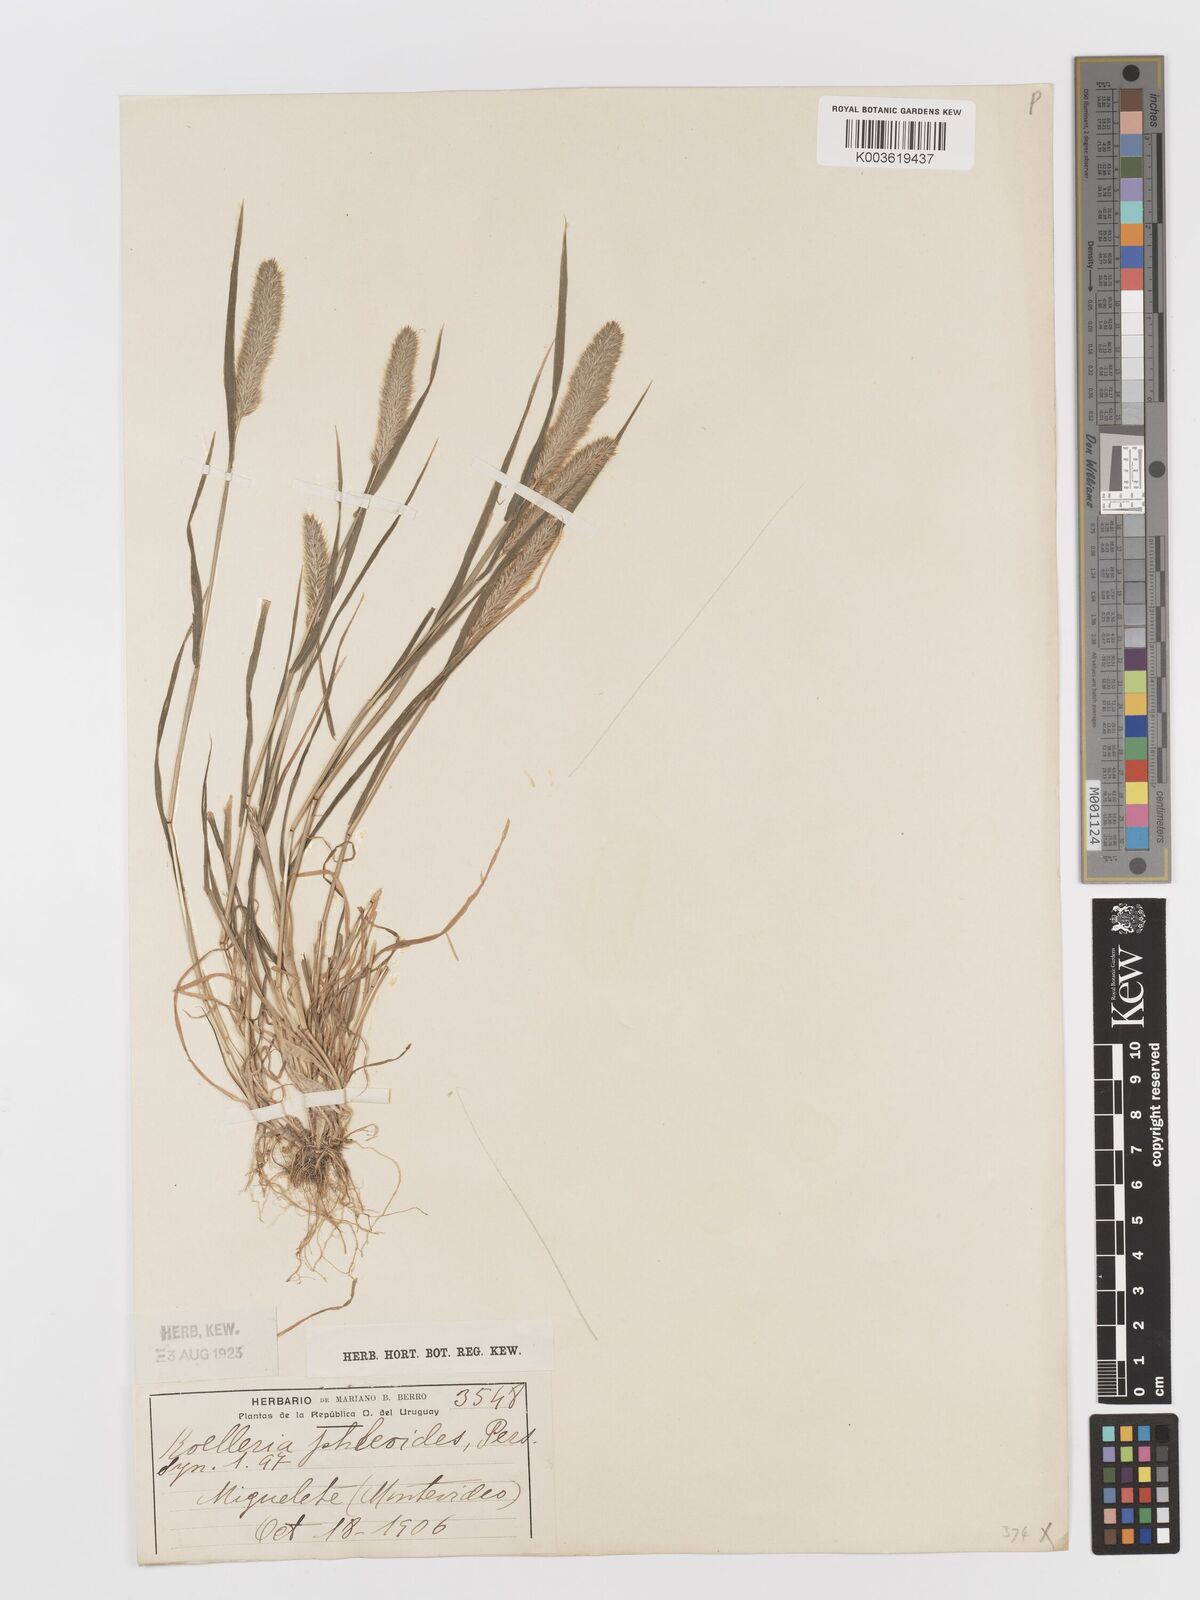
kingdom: Plantae
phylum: Tracheophyta
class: Liliopsida
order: Poales
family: Poaceae
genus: Rostraria
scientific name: Rostraria cristata
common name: Mediterranean hair-grass
